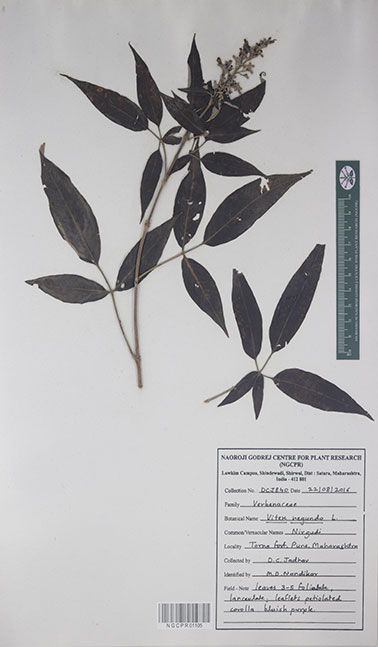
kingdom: Plantae
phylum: Tracheophyta
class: Magnoliopsida
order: Lamiales
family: Lamiaceae
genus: Vitex
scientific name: Vitex negundo
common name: Chinese chastetree
